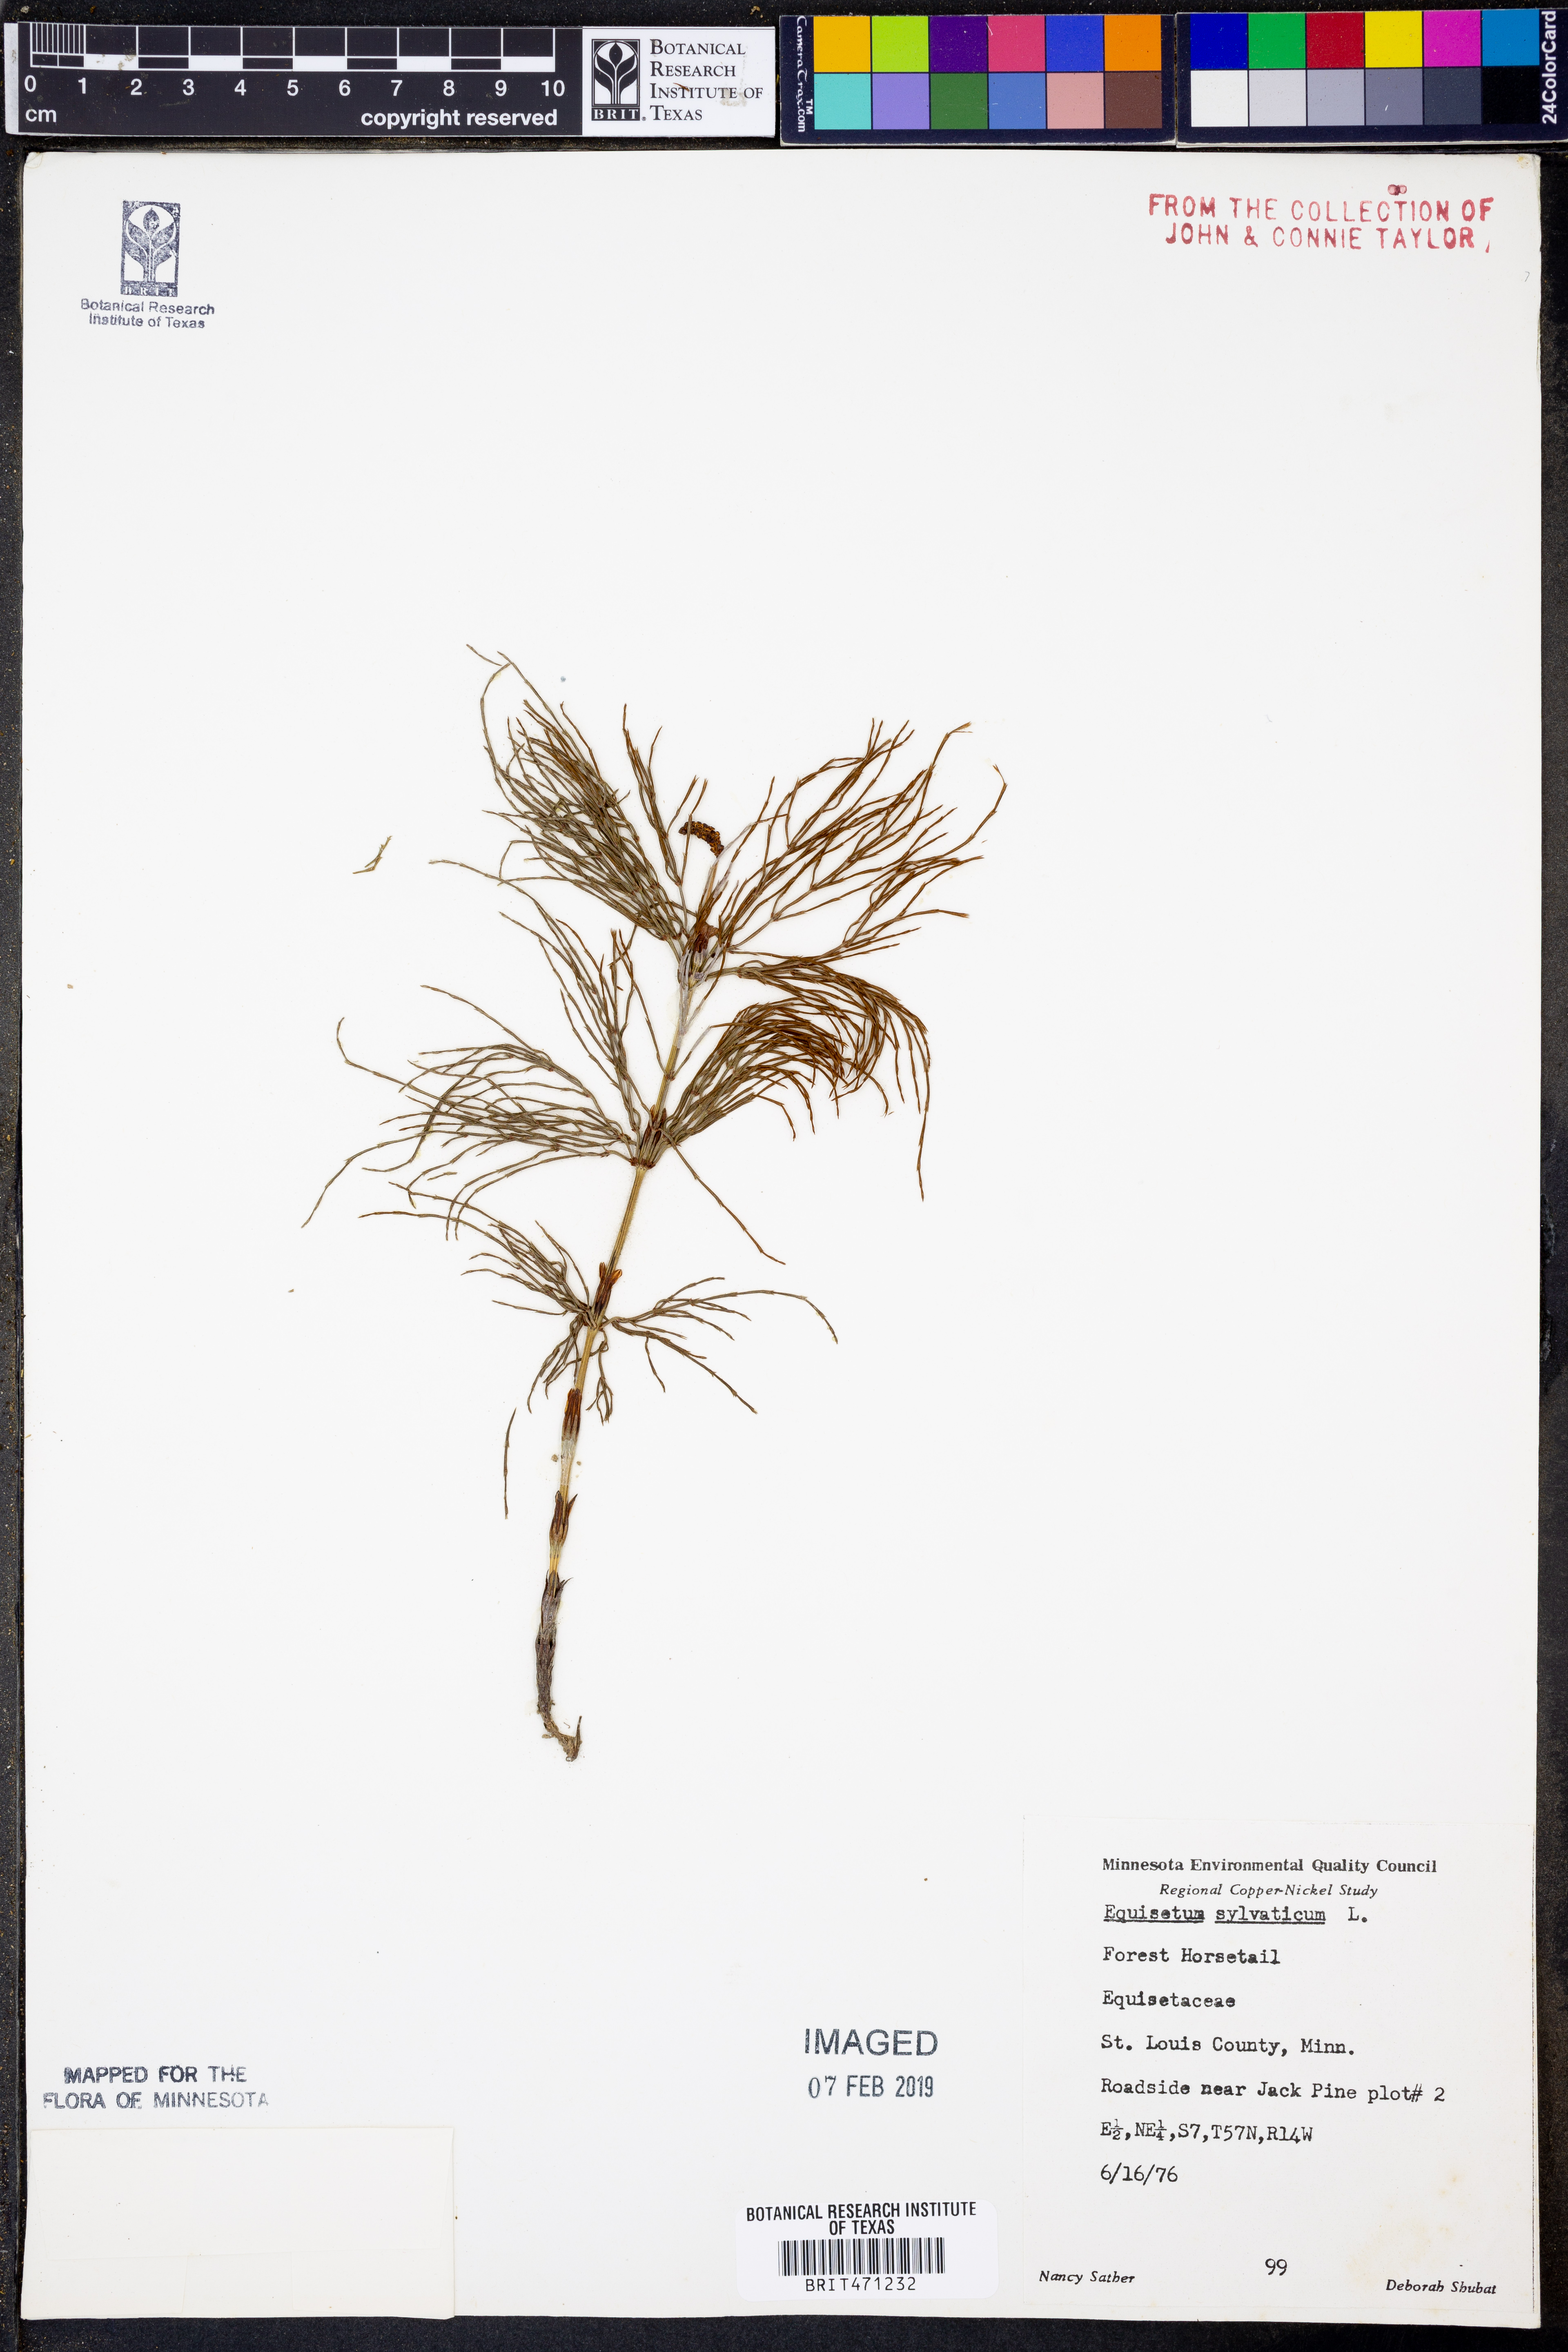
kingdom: Plantae
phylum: Tracheophyta
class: Polypodiopsida
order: Equisetales
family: Equisetaceae
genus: Equisetum
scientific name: Equisetum sylvaticum
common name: Wood horsetail
